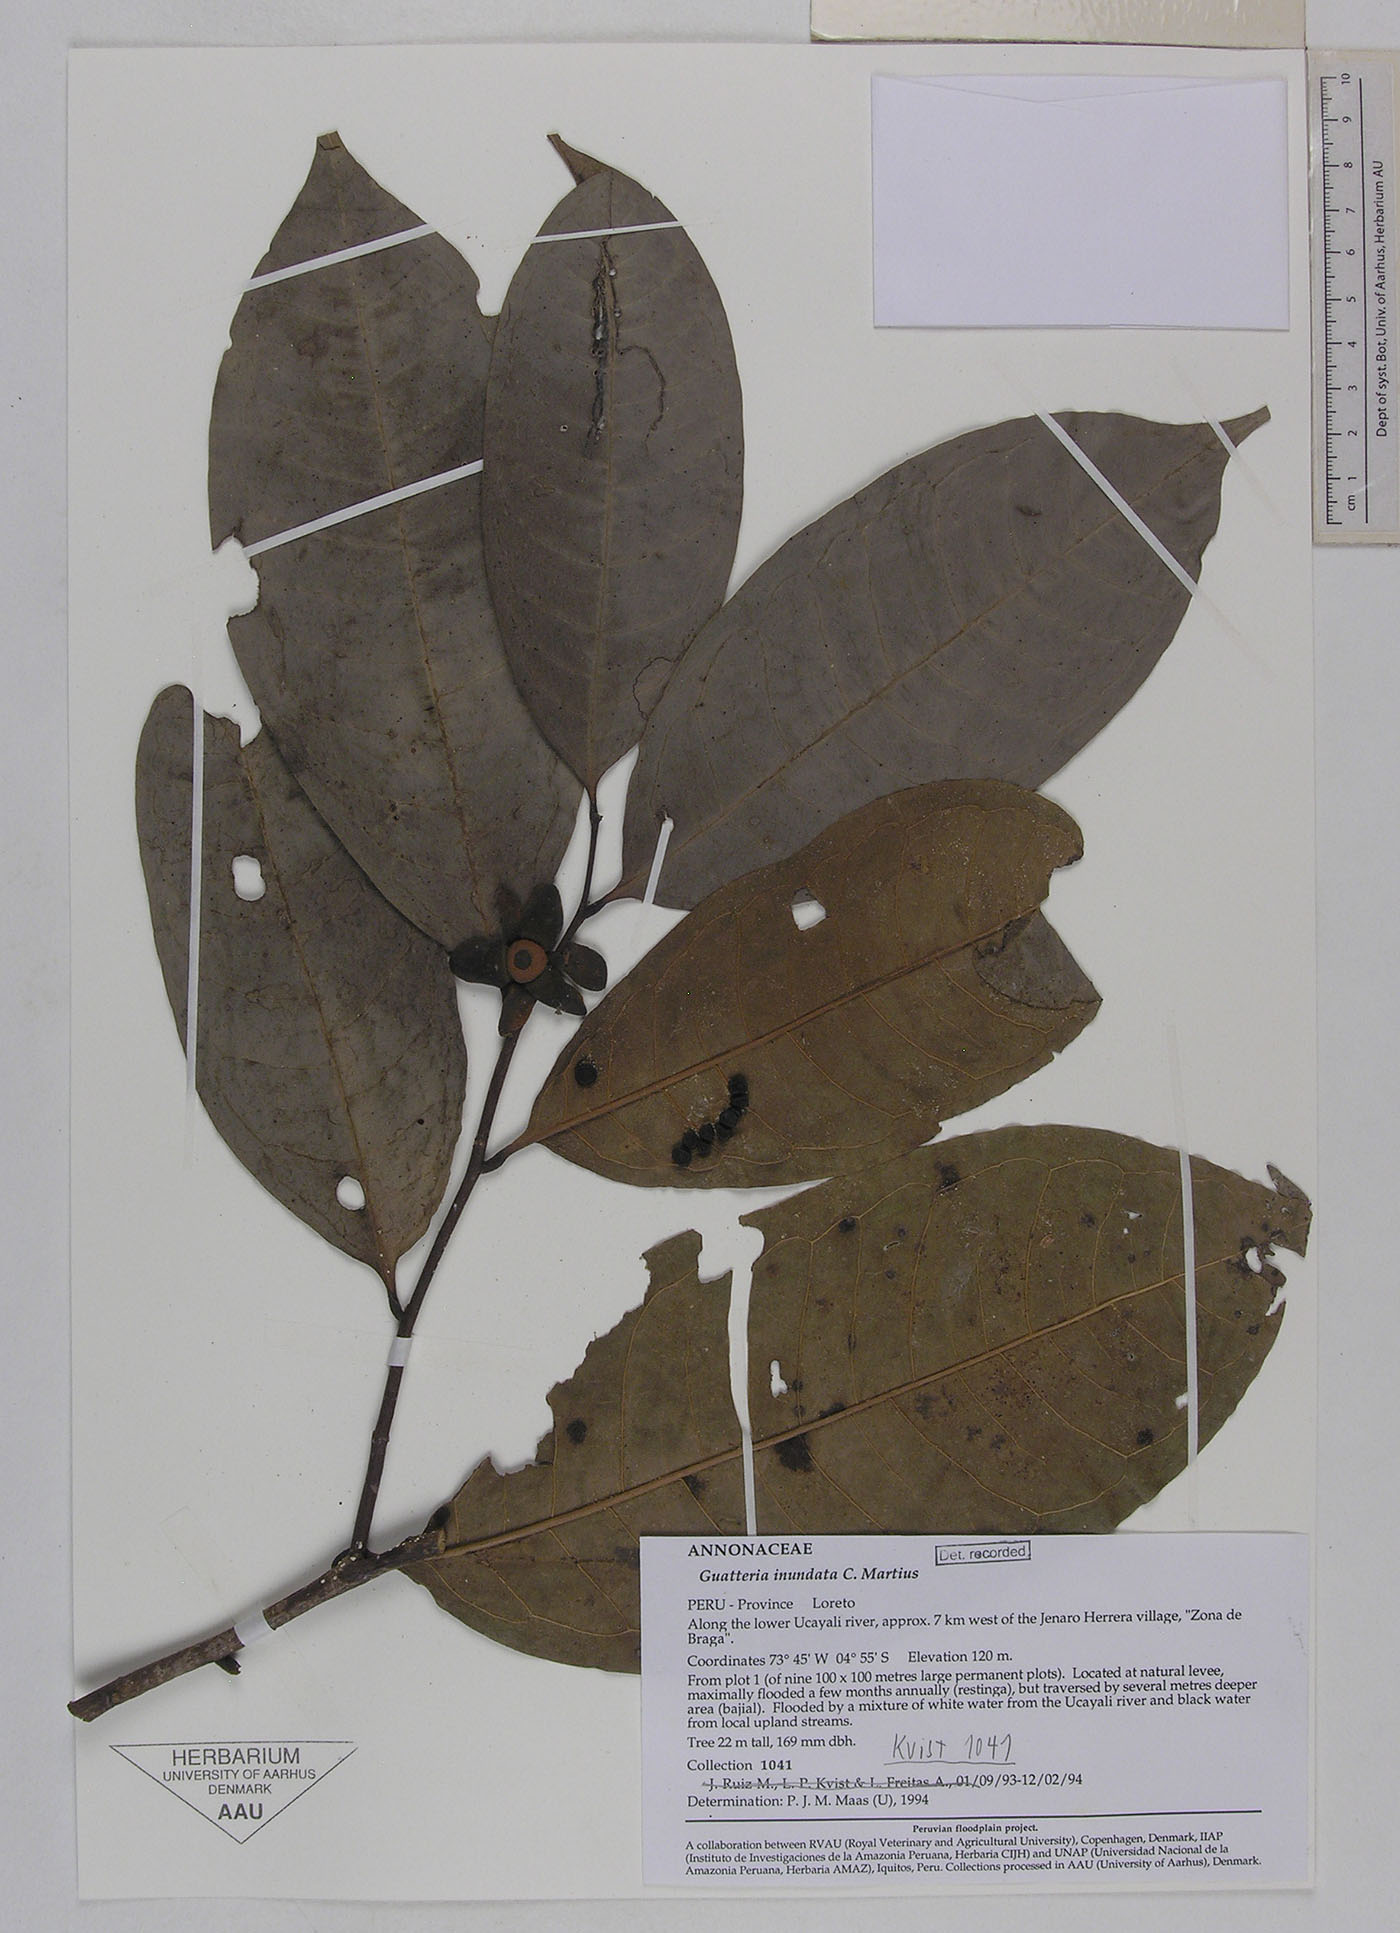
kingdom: Plantae
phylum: Tracheophyta
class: Magnoliopsida
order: Magnoliales
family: Annonaceae
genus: Guatteria
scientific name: Guatteria inundata
